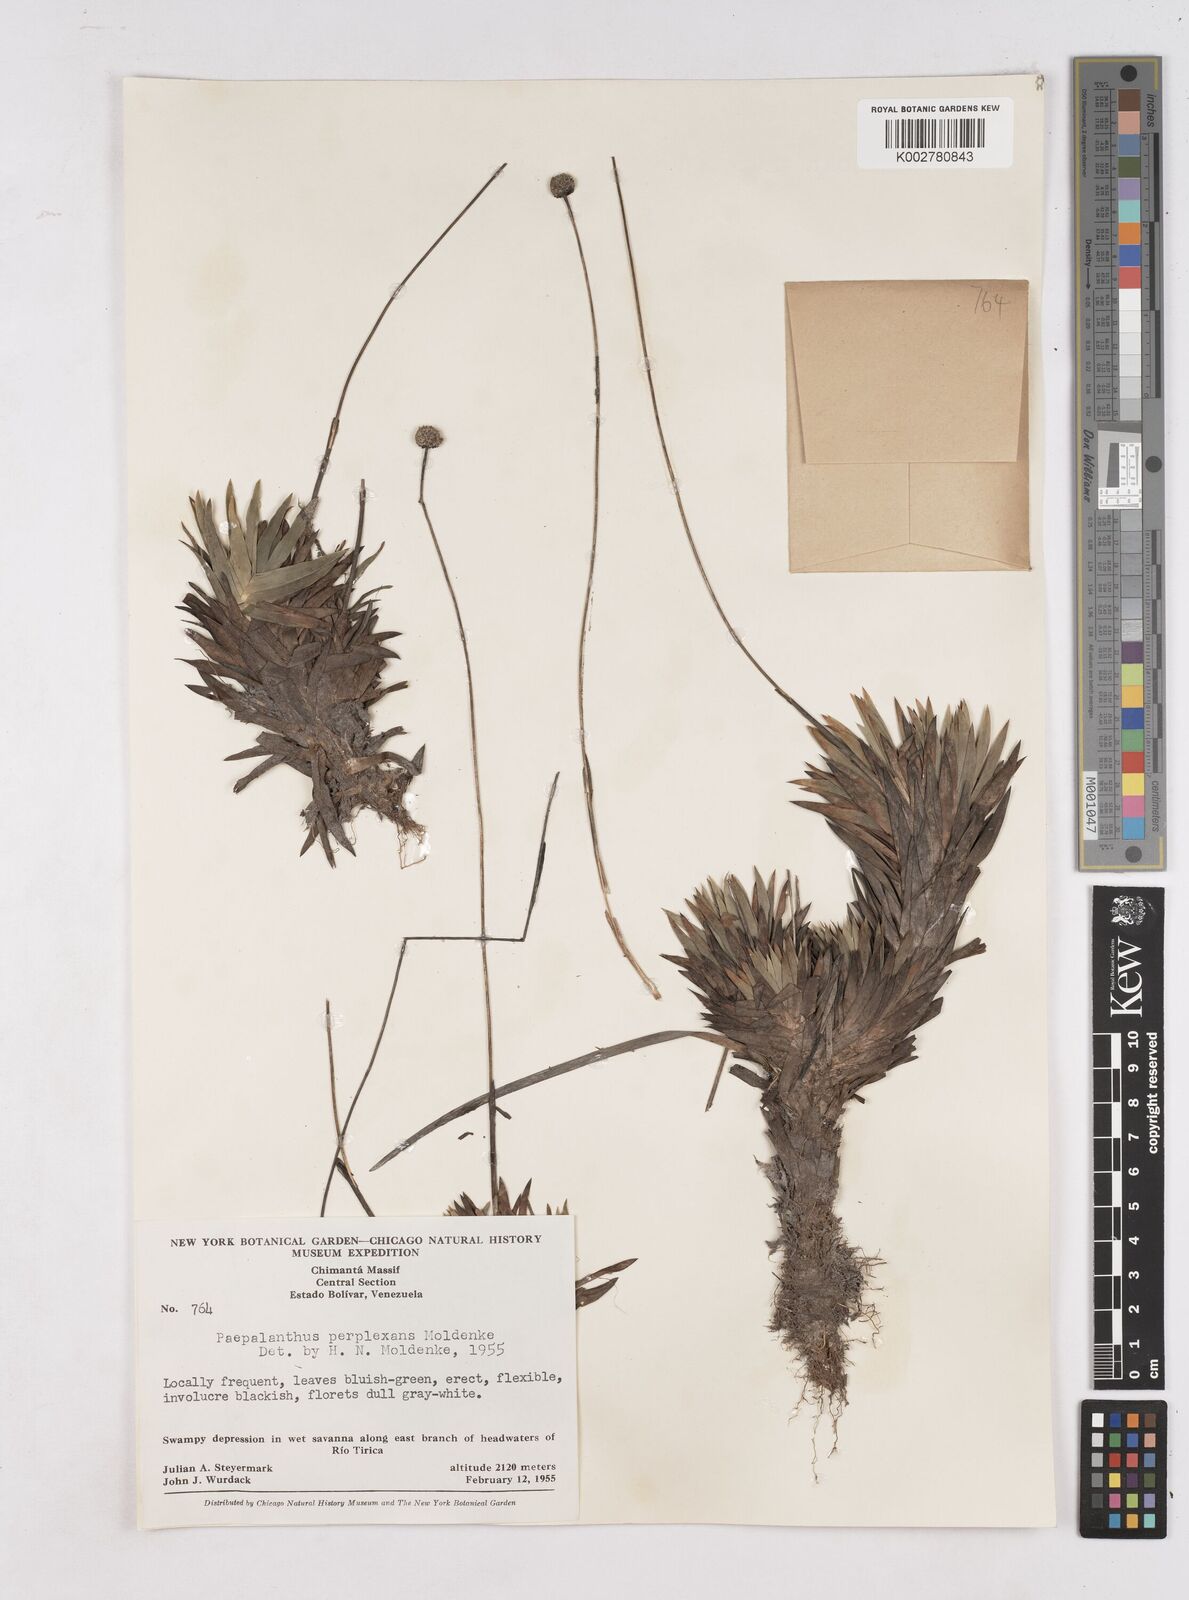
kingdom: Plantae
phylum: Tracheophyta
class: Liliopsida
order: Poales
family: Eriocaulaceae
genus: Paepalanthus
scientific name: Paepalanthus schomburgkii
